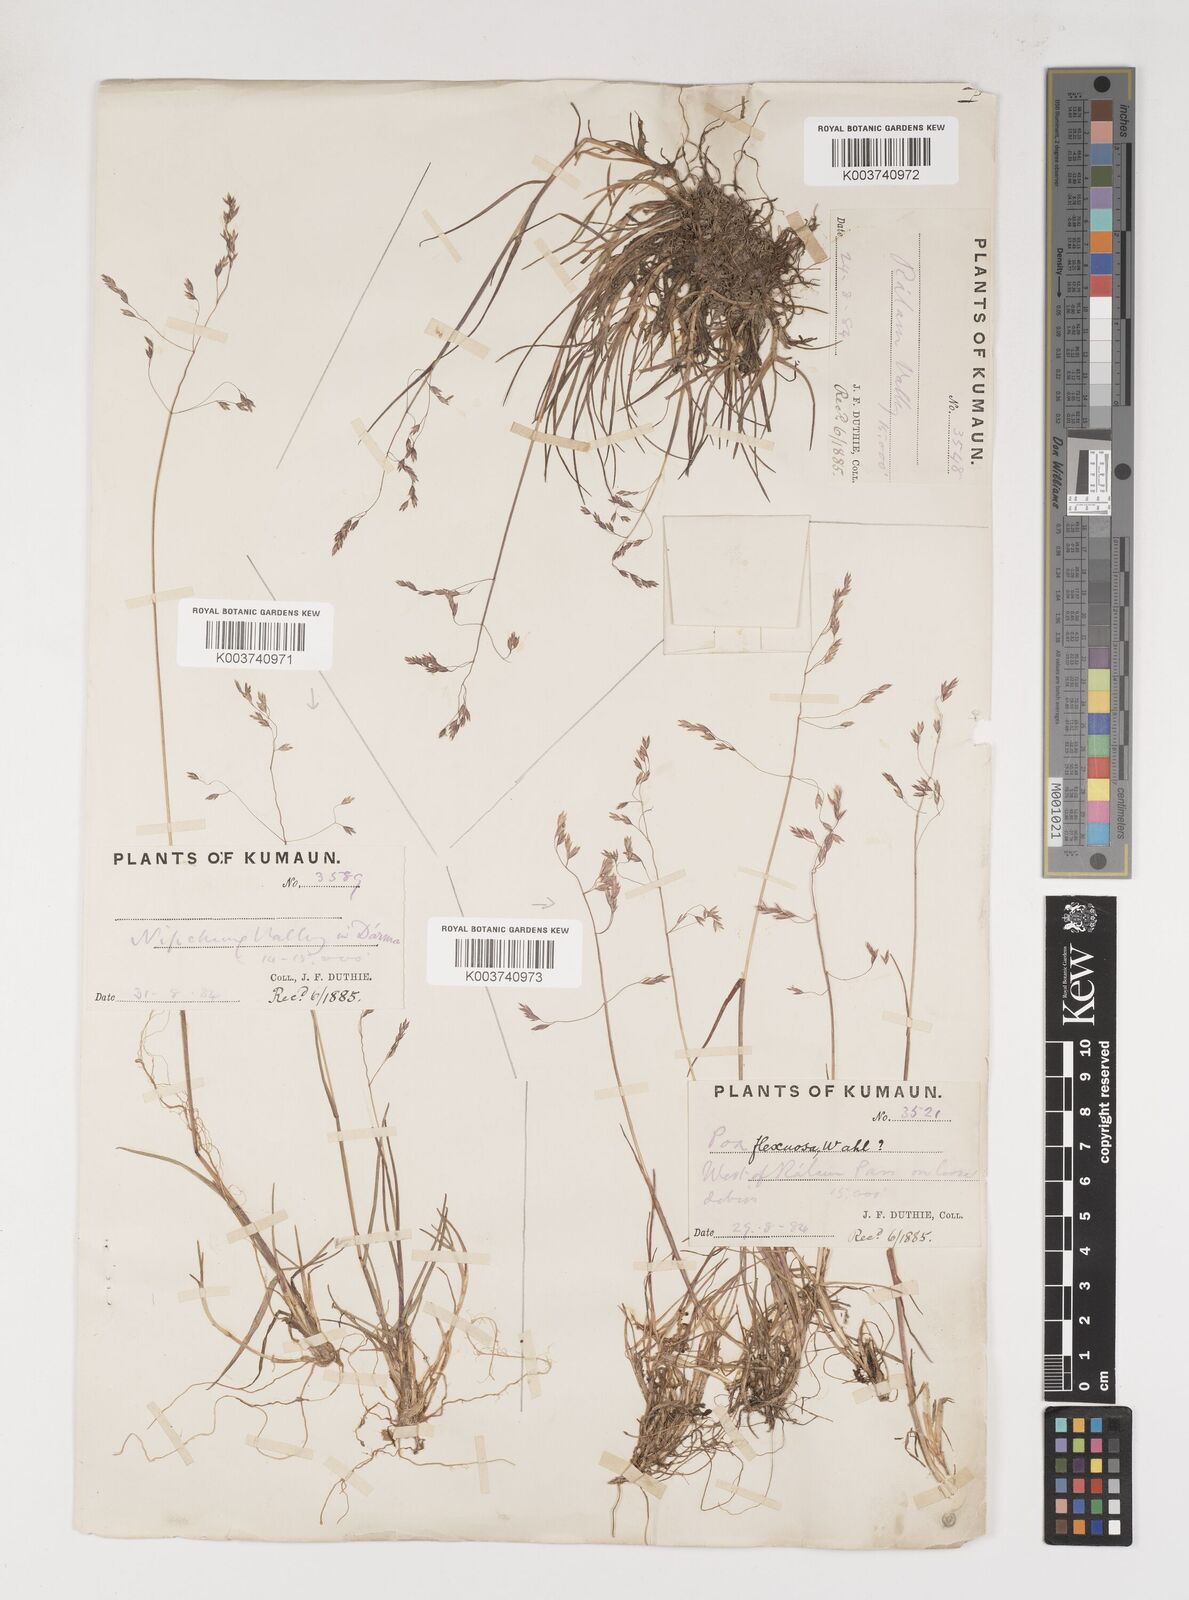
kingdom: Plantae
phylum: Tracheophyta
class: Liliopsida
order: Poales
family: Poaceae
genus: Poa
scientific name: Poa pagophila
